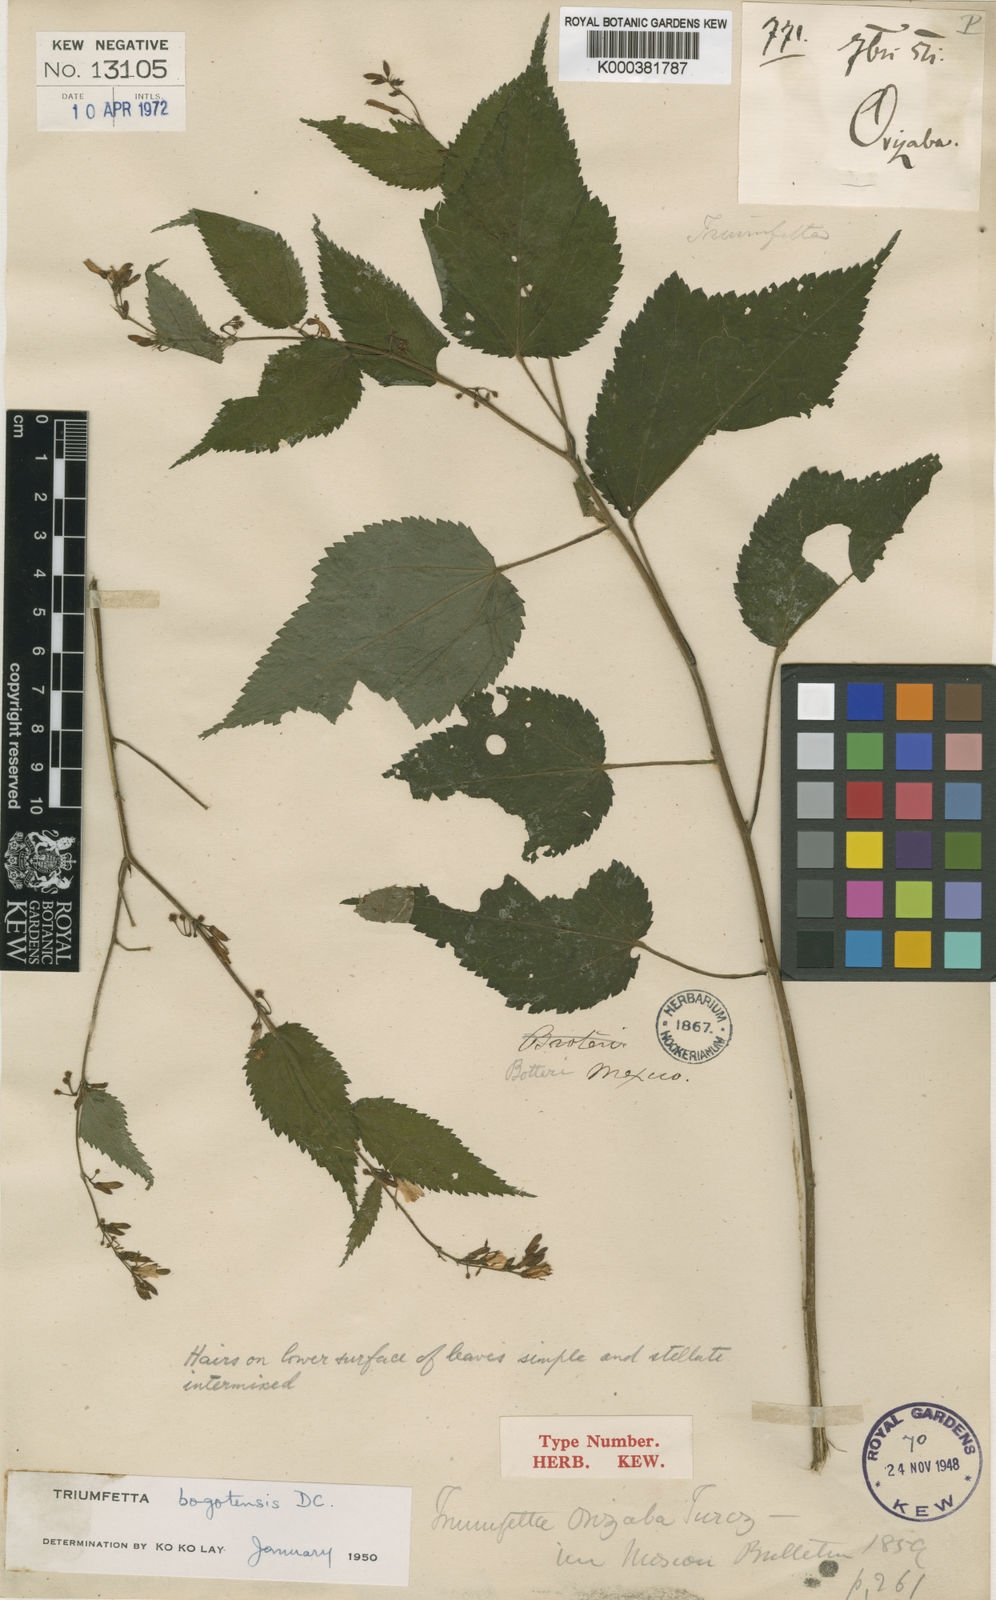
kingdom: Plantae
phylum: Tracheophyta
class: Magnoliopsida
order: Malvales
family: Malvaceae
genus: Triumfetta
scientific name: Triumfetta bogotensis
